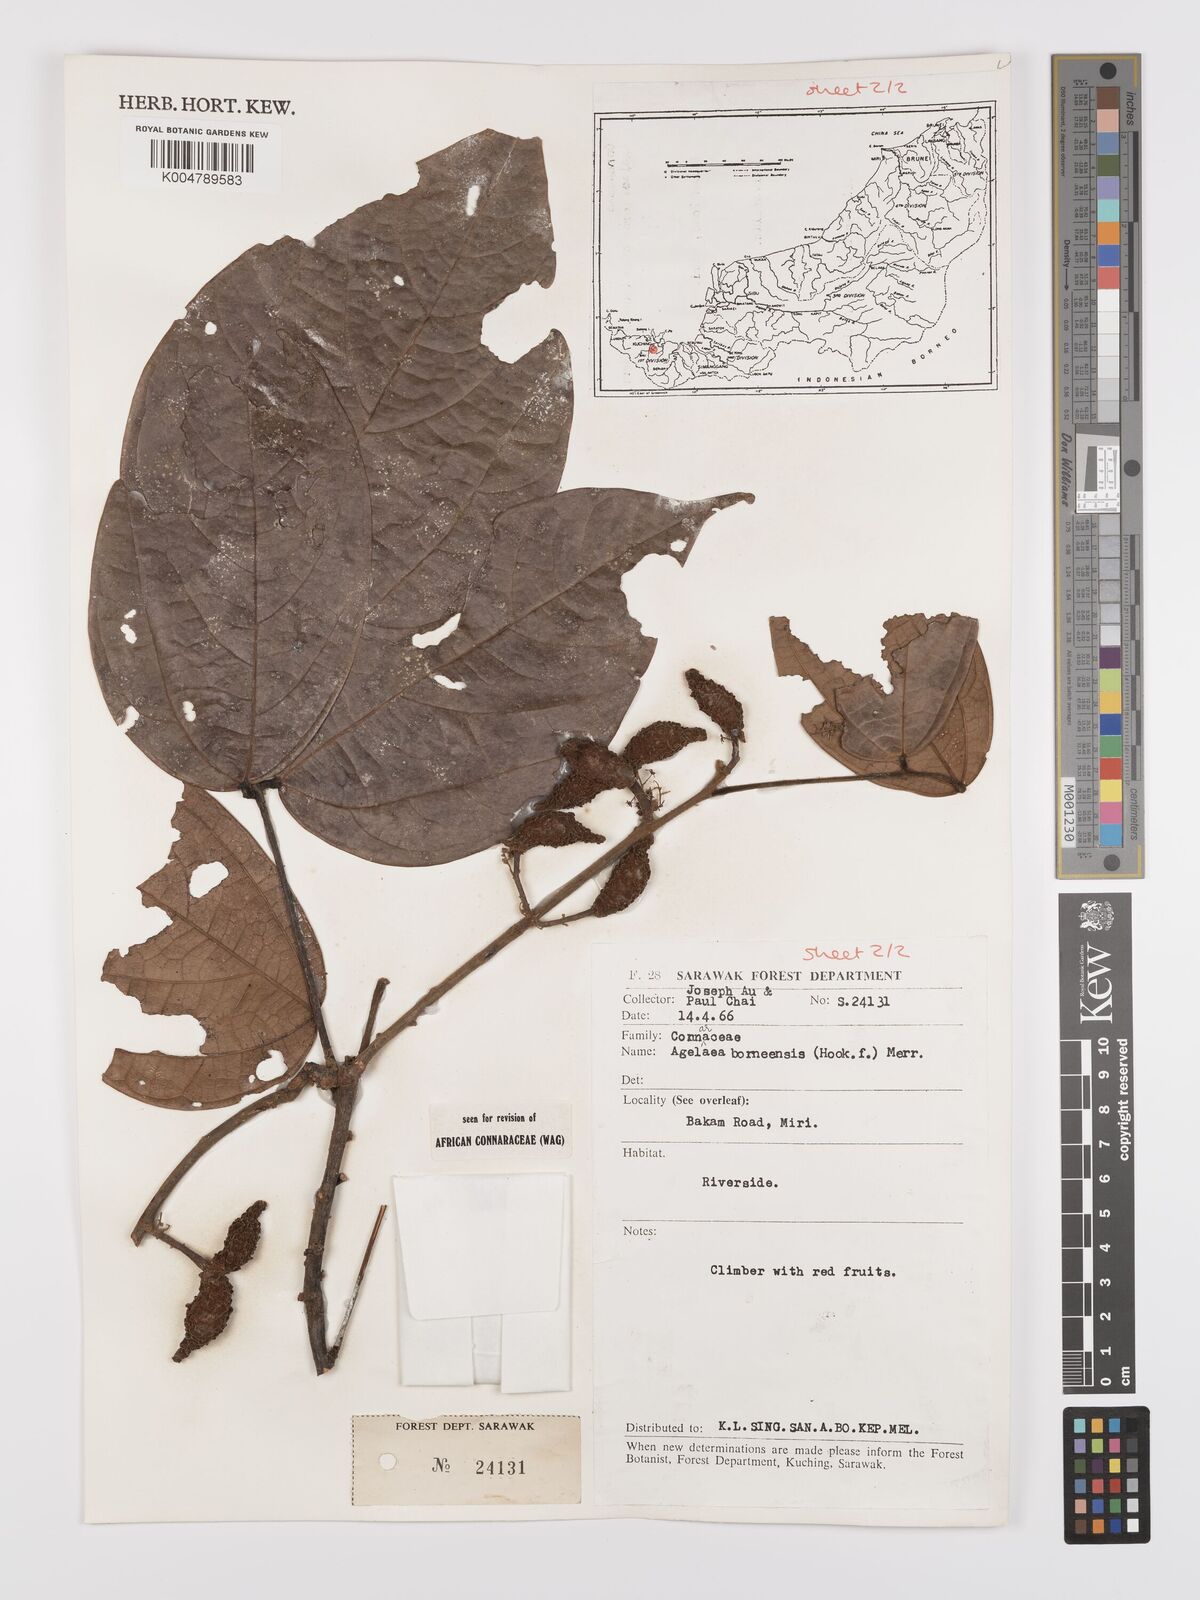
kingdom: Plantae
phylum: Tracheophyta
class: Magnoliopsida
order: Oxalidales
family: Connaraceae
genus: Agelaea
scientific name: Agelaea borneensis
